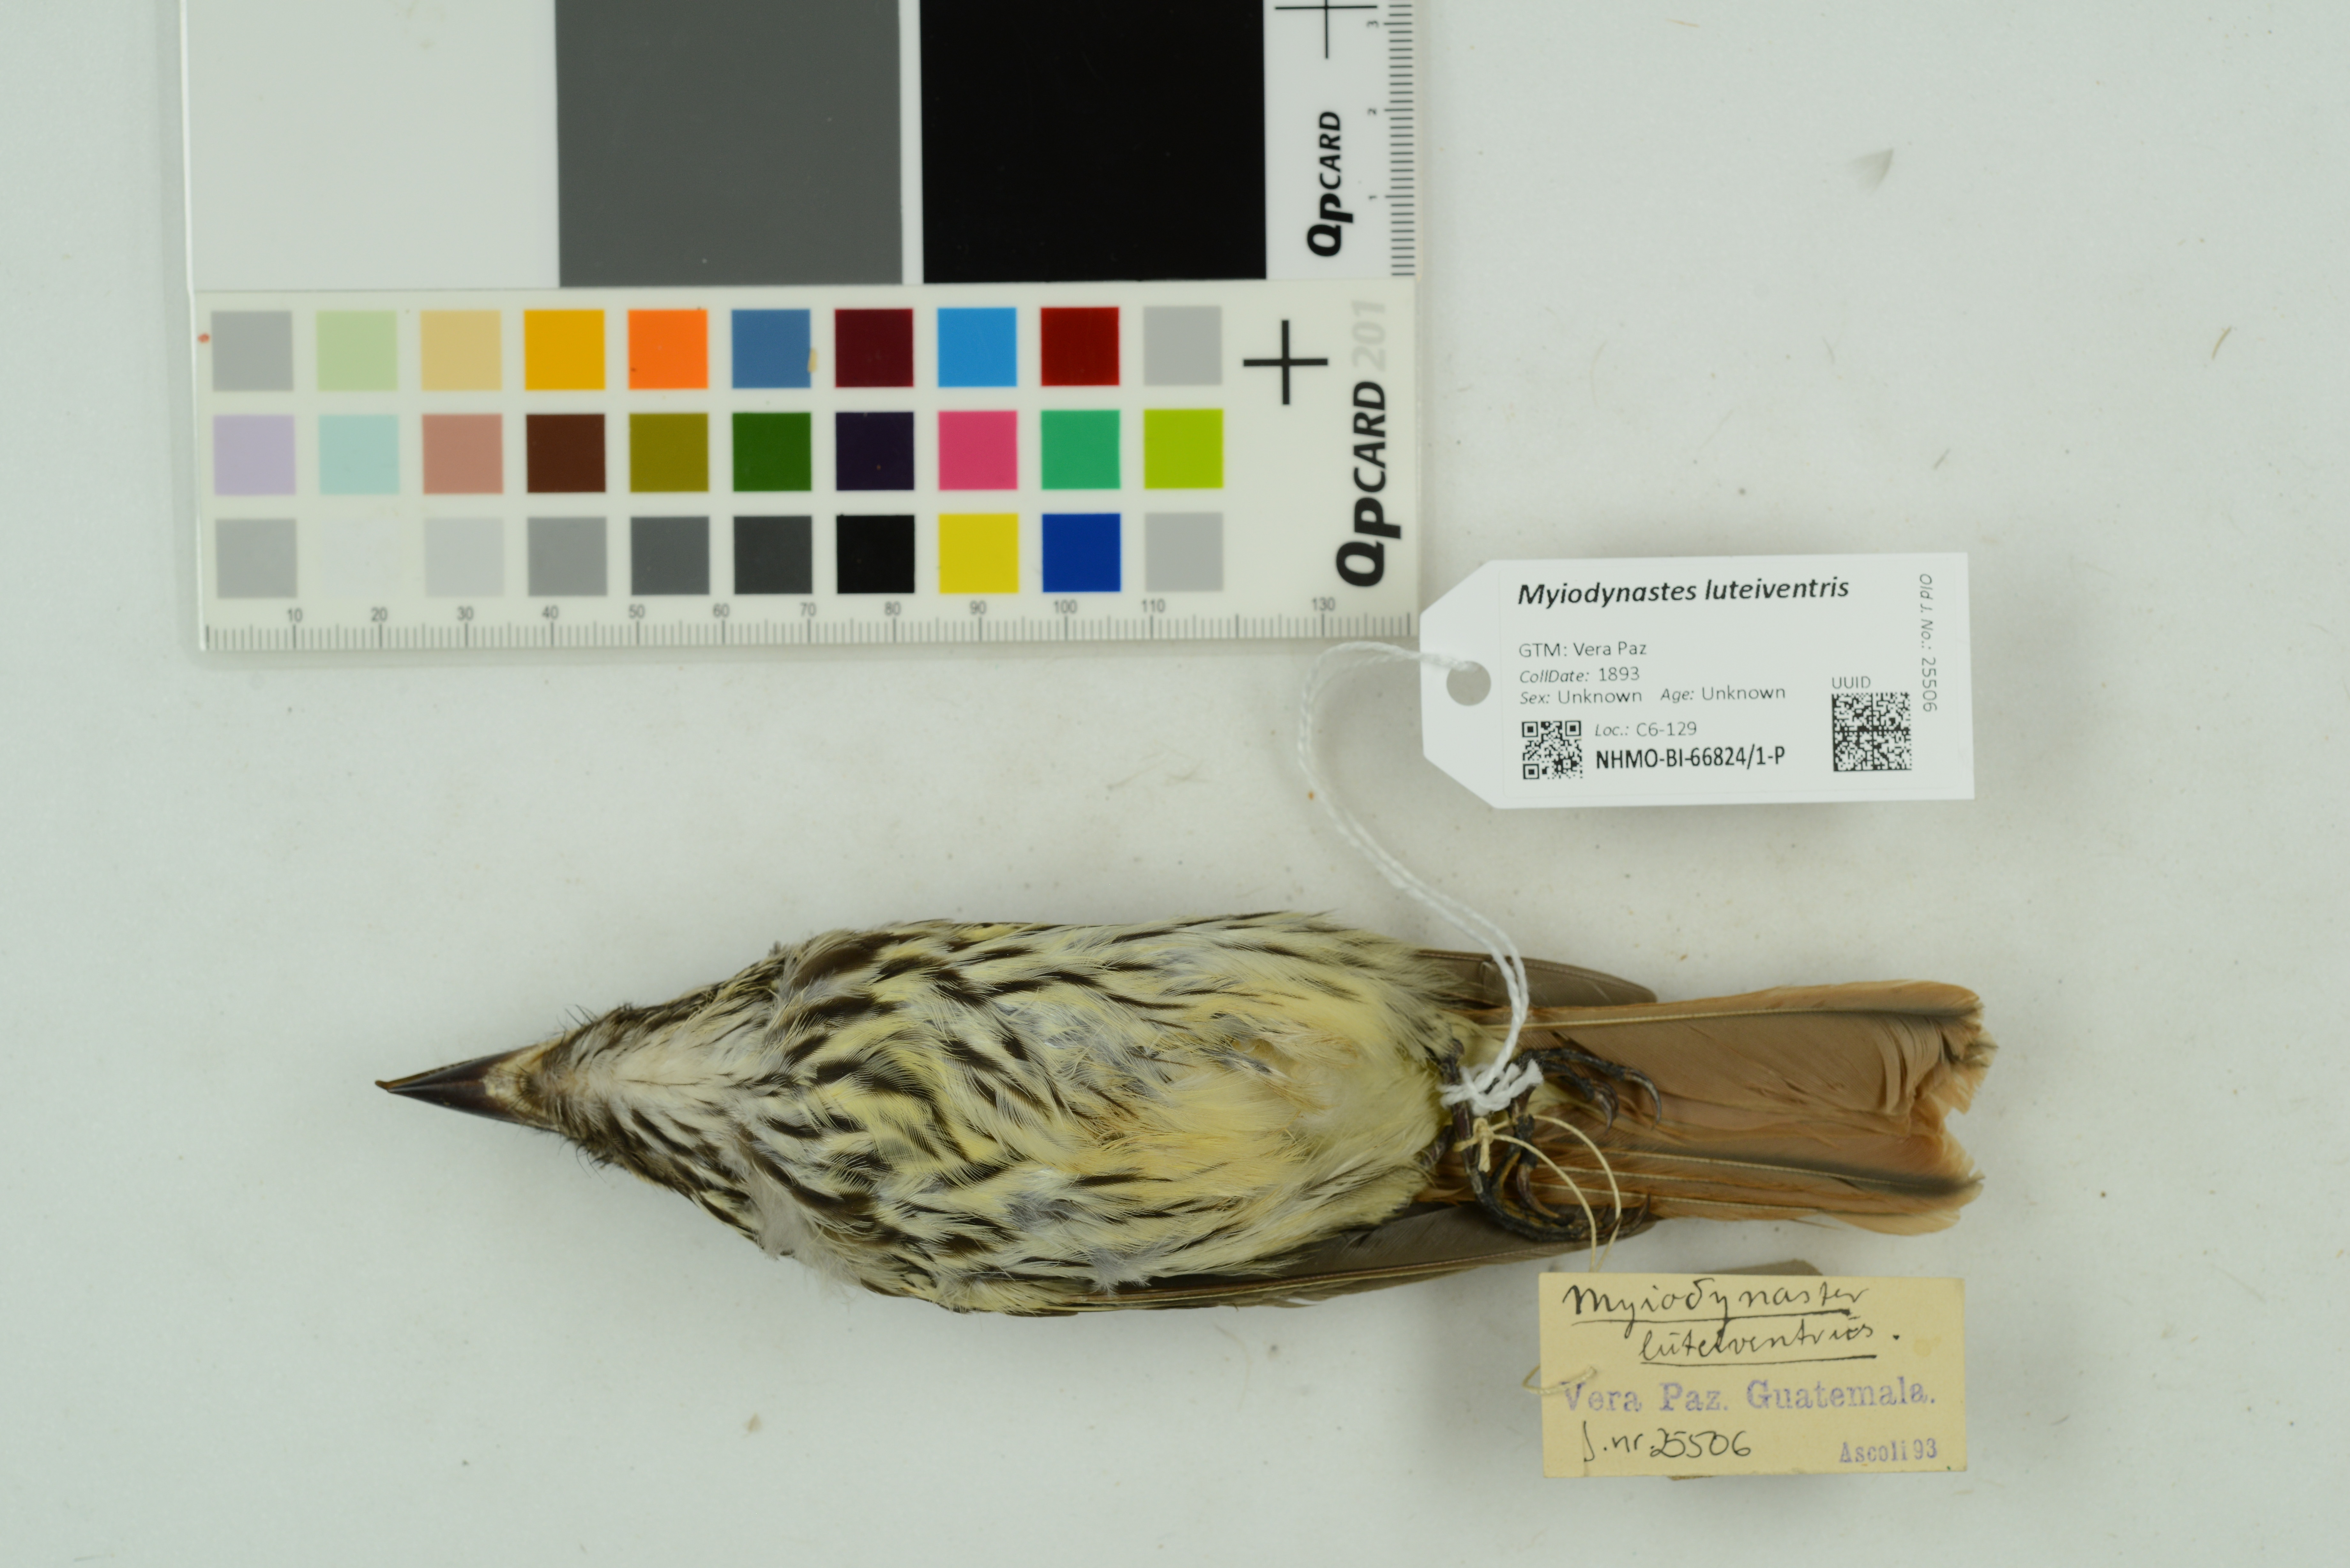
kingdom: Animalia
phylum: Chordata
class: Aves
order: Passeriformes
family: Tyrannidae
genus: Myiodynastes
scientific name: Myiodynastes luteiventris
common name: Sulphur-bellied flycatcher
